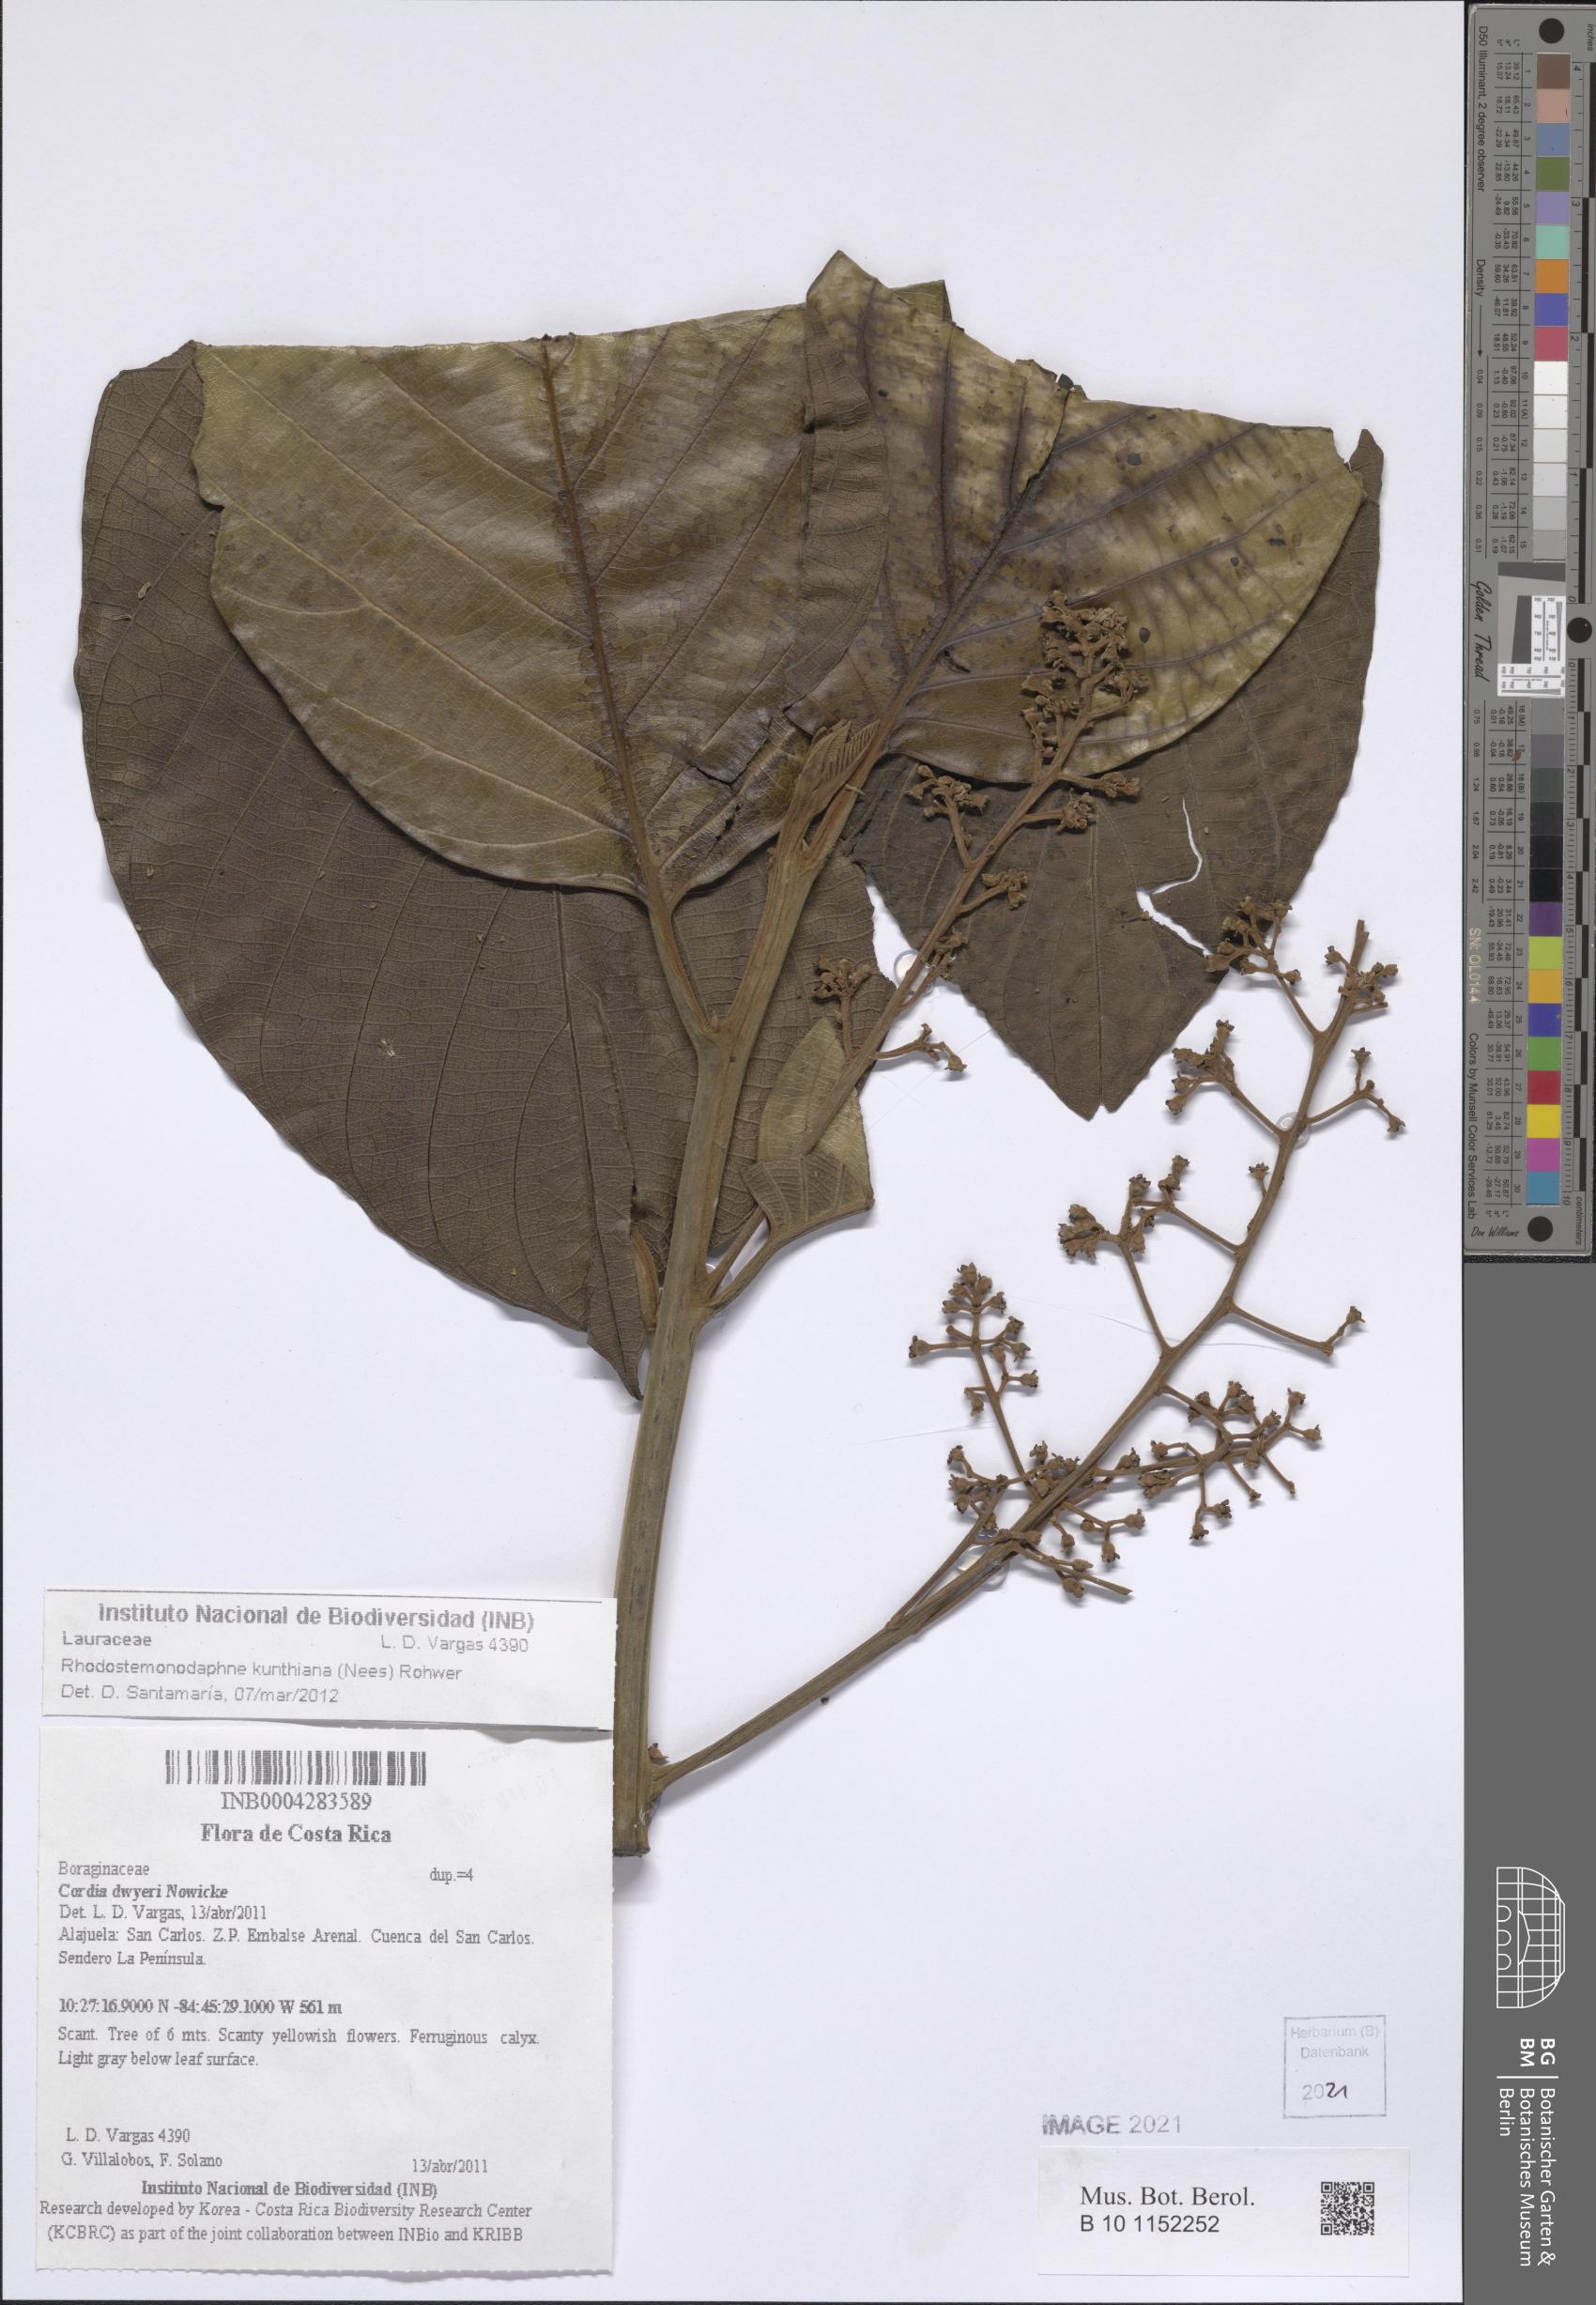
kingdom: Plantae
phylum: Tracheophyta
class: Magnoliopsida
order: Laurales
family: Lauraceae
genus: Rhodostemonodaphne
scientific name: Rhodostemonodaphne kunthiana
